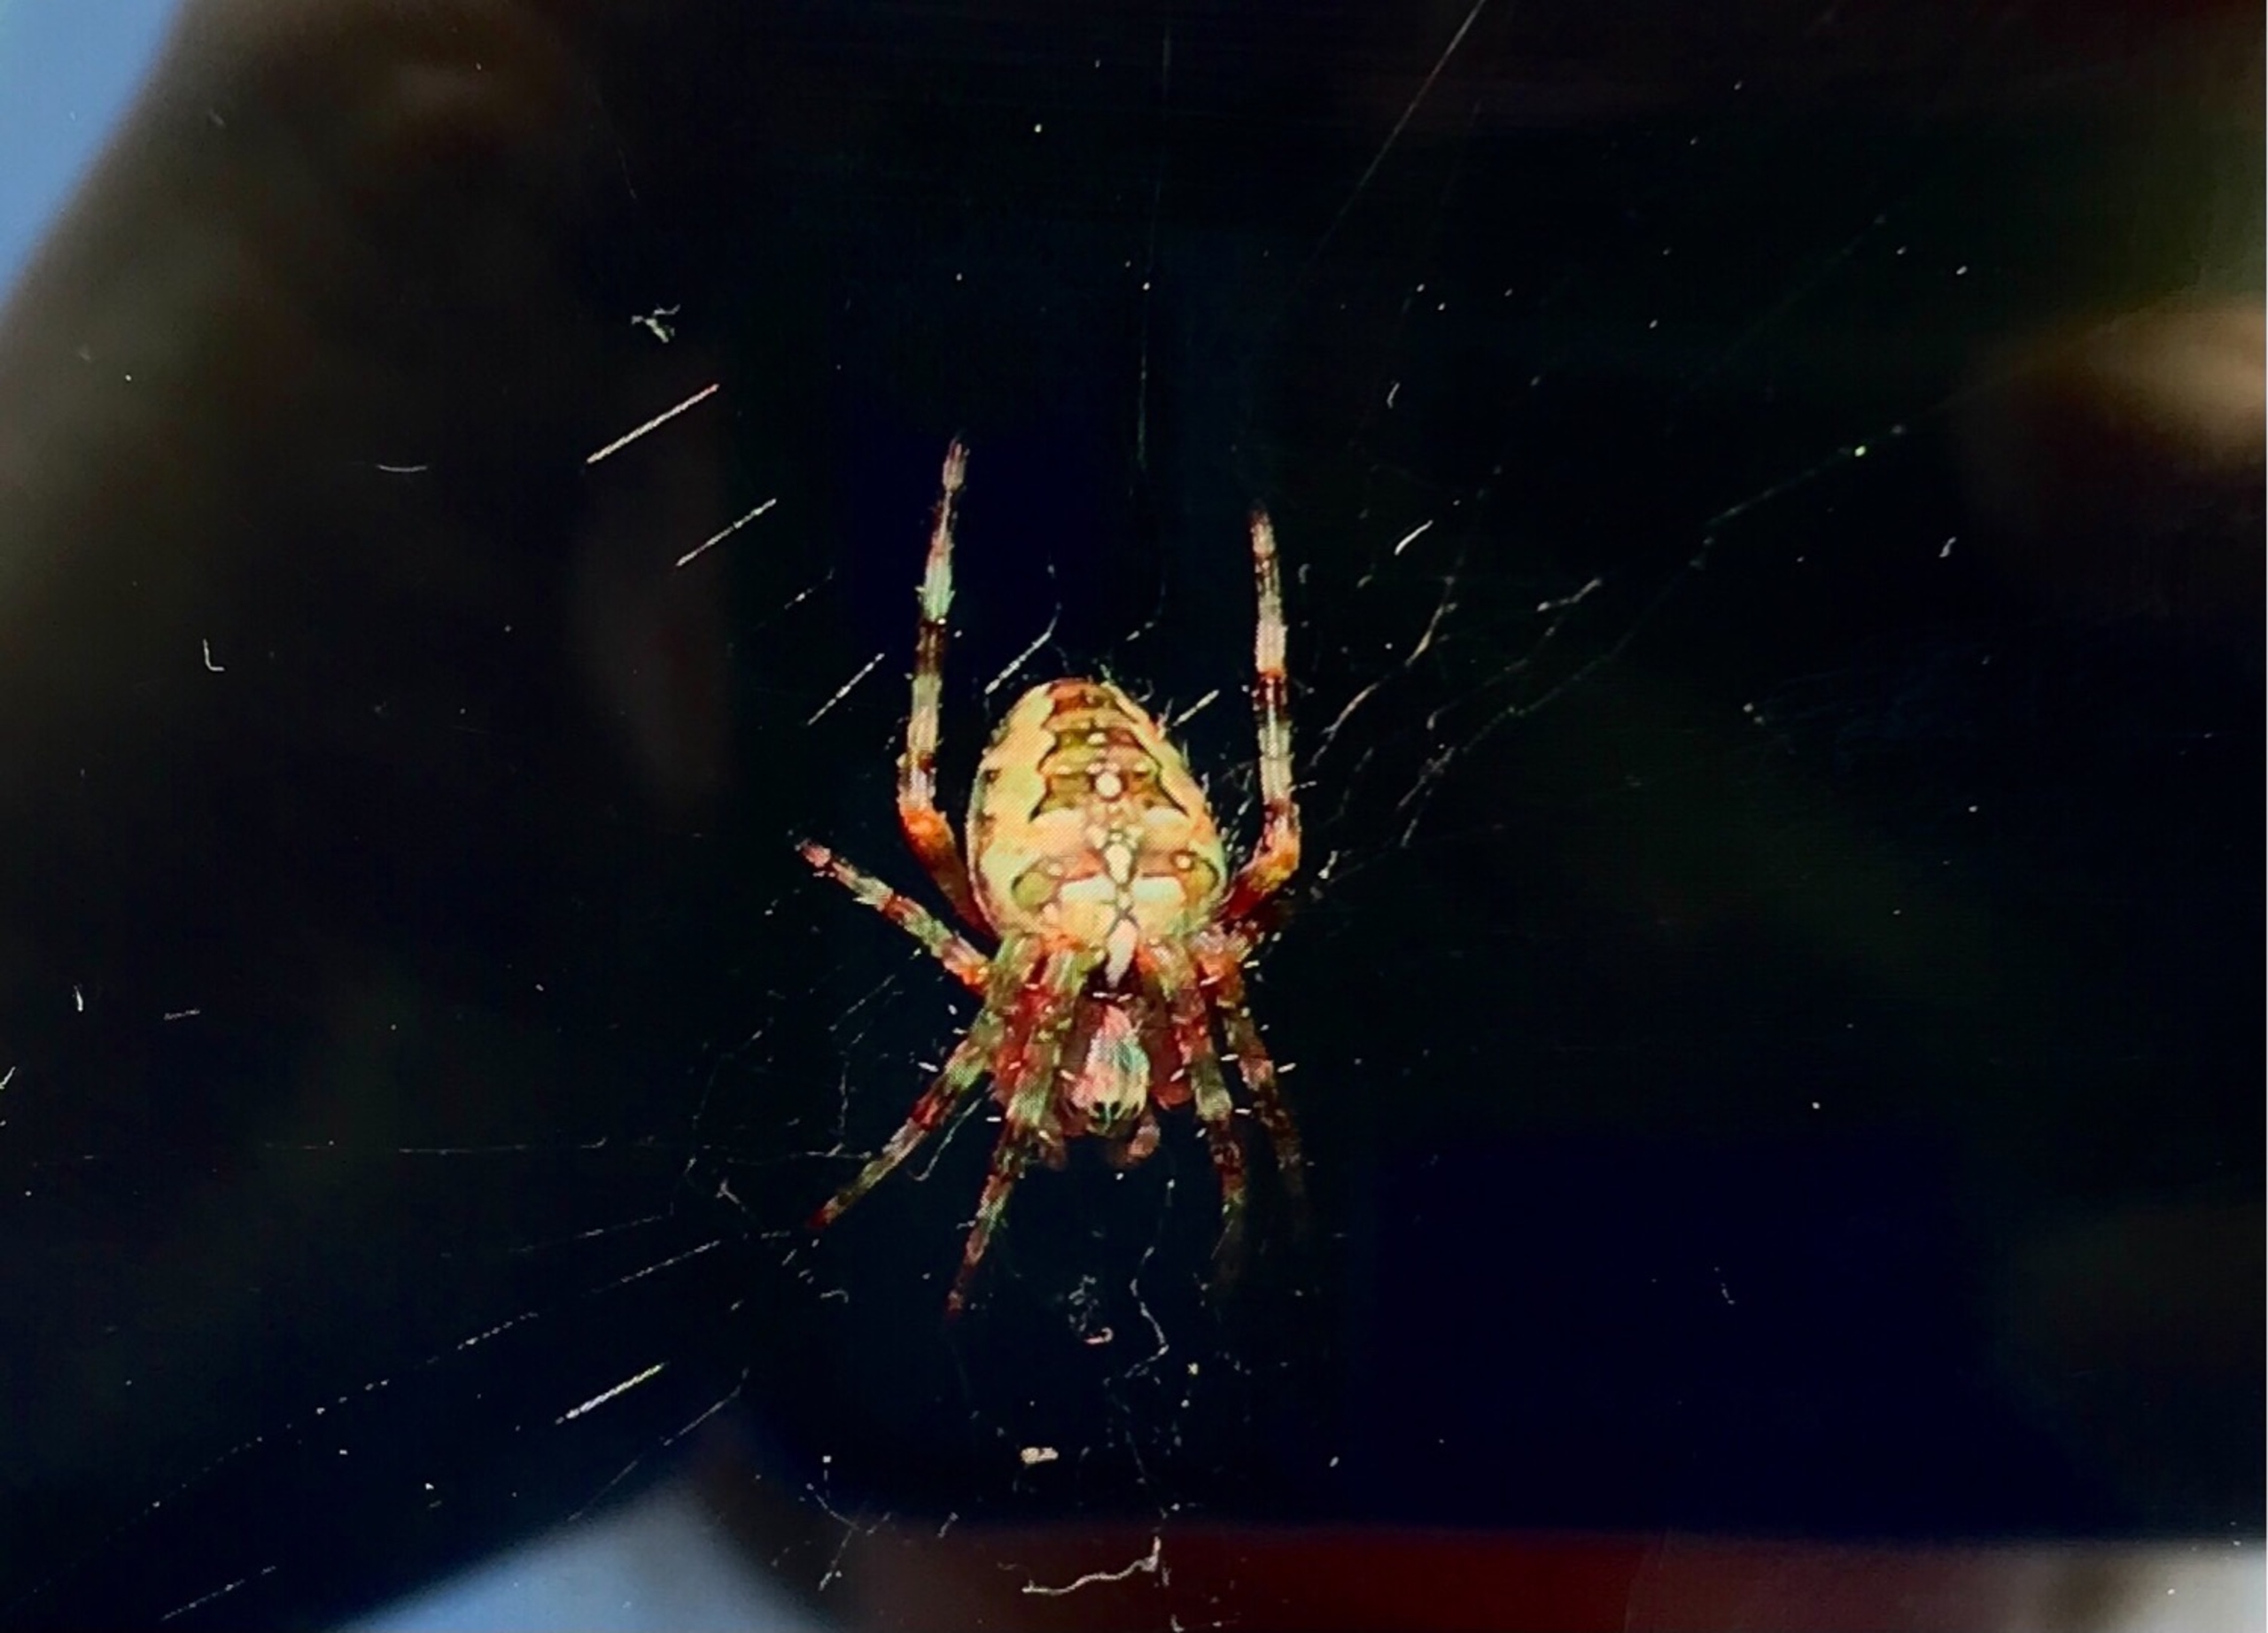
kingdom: Animalia
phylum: Arthropoda
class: Arachnida
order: Araneae
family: Araneidae
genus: Araneus
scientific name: Araneus diadematus
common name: Korsedderkop
